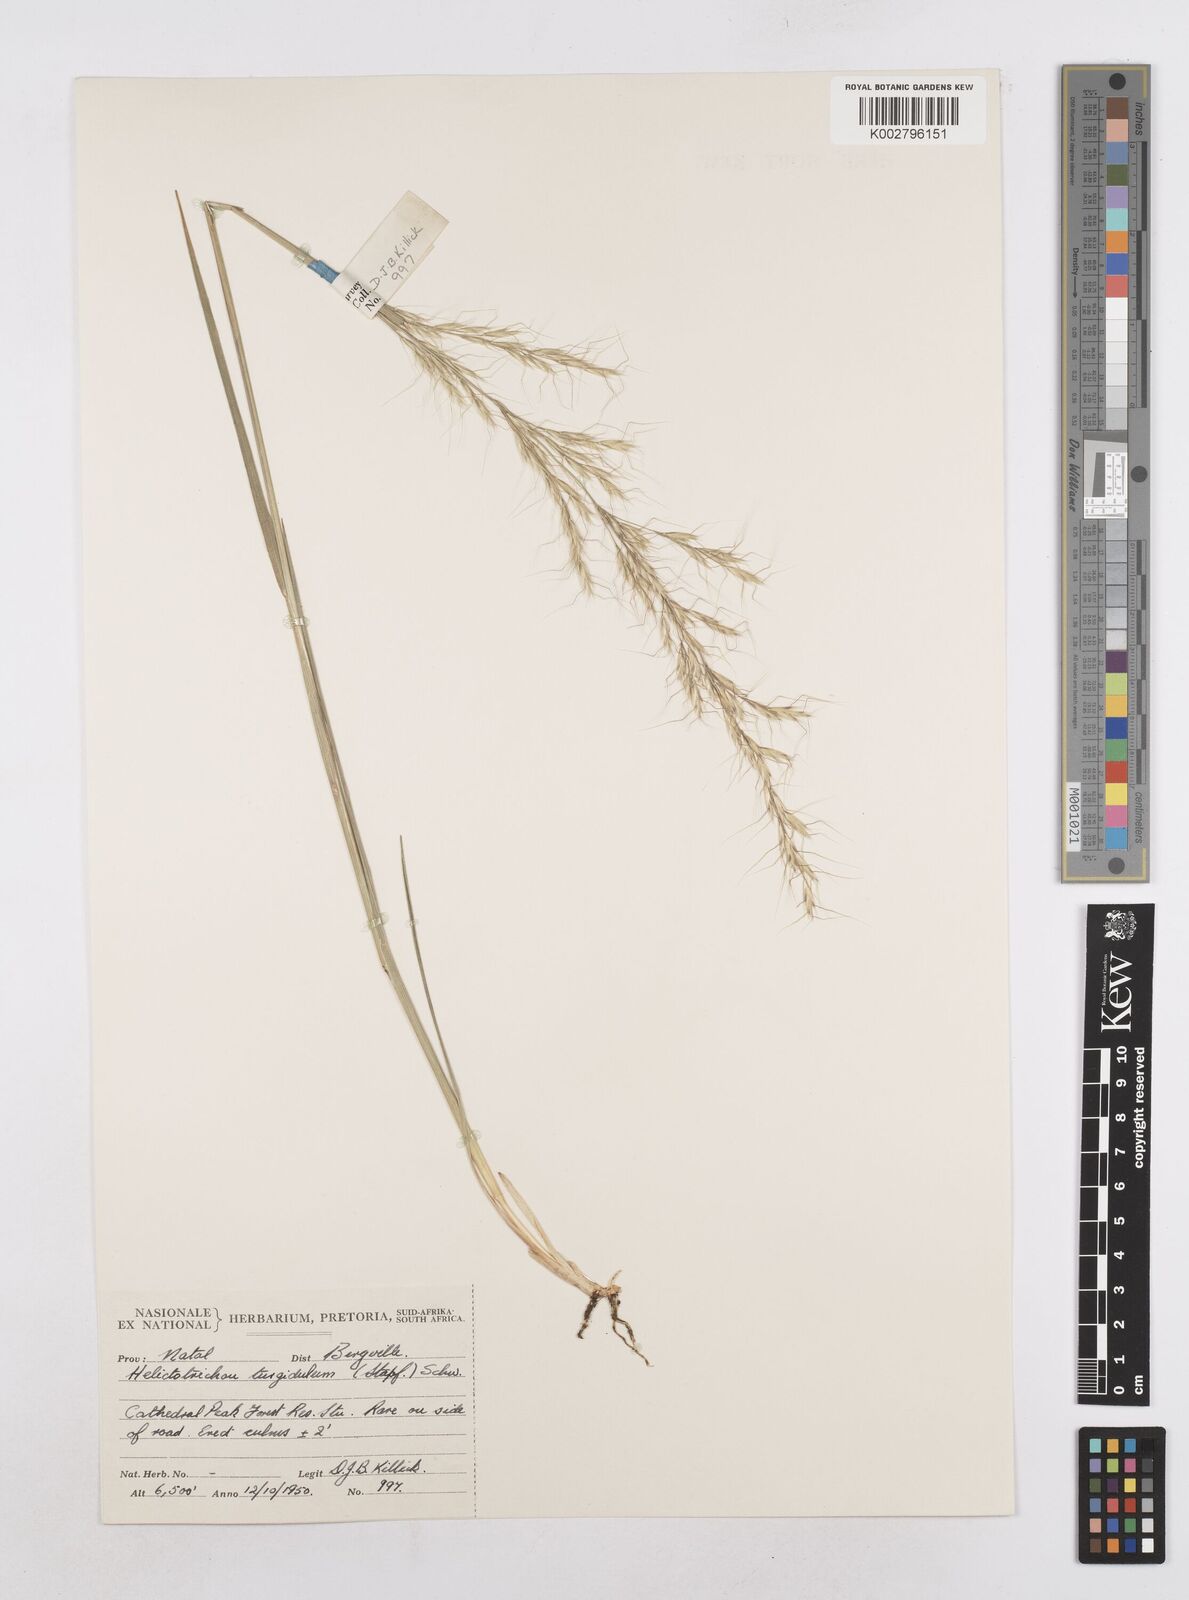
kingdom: Plantae
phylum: Tracheophyta
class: Liliopsida
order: Poales
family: Poaceae
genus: Trisetopsis
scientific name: Trisetopsis imberbis
